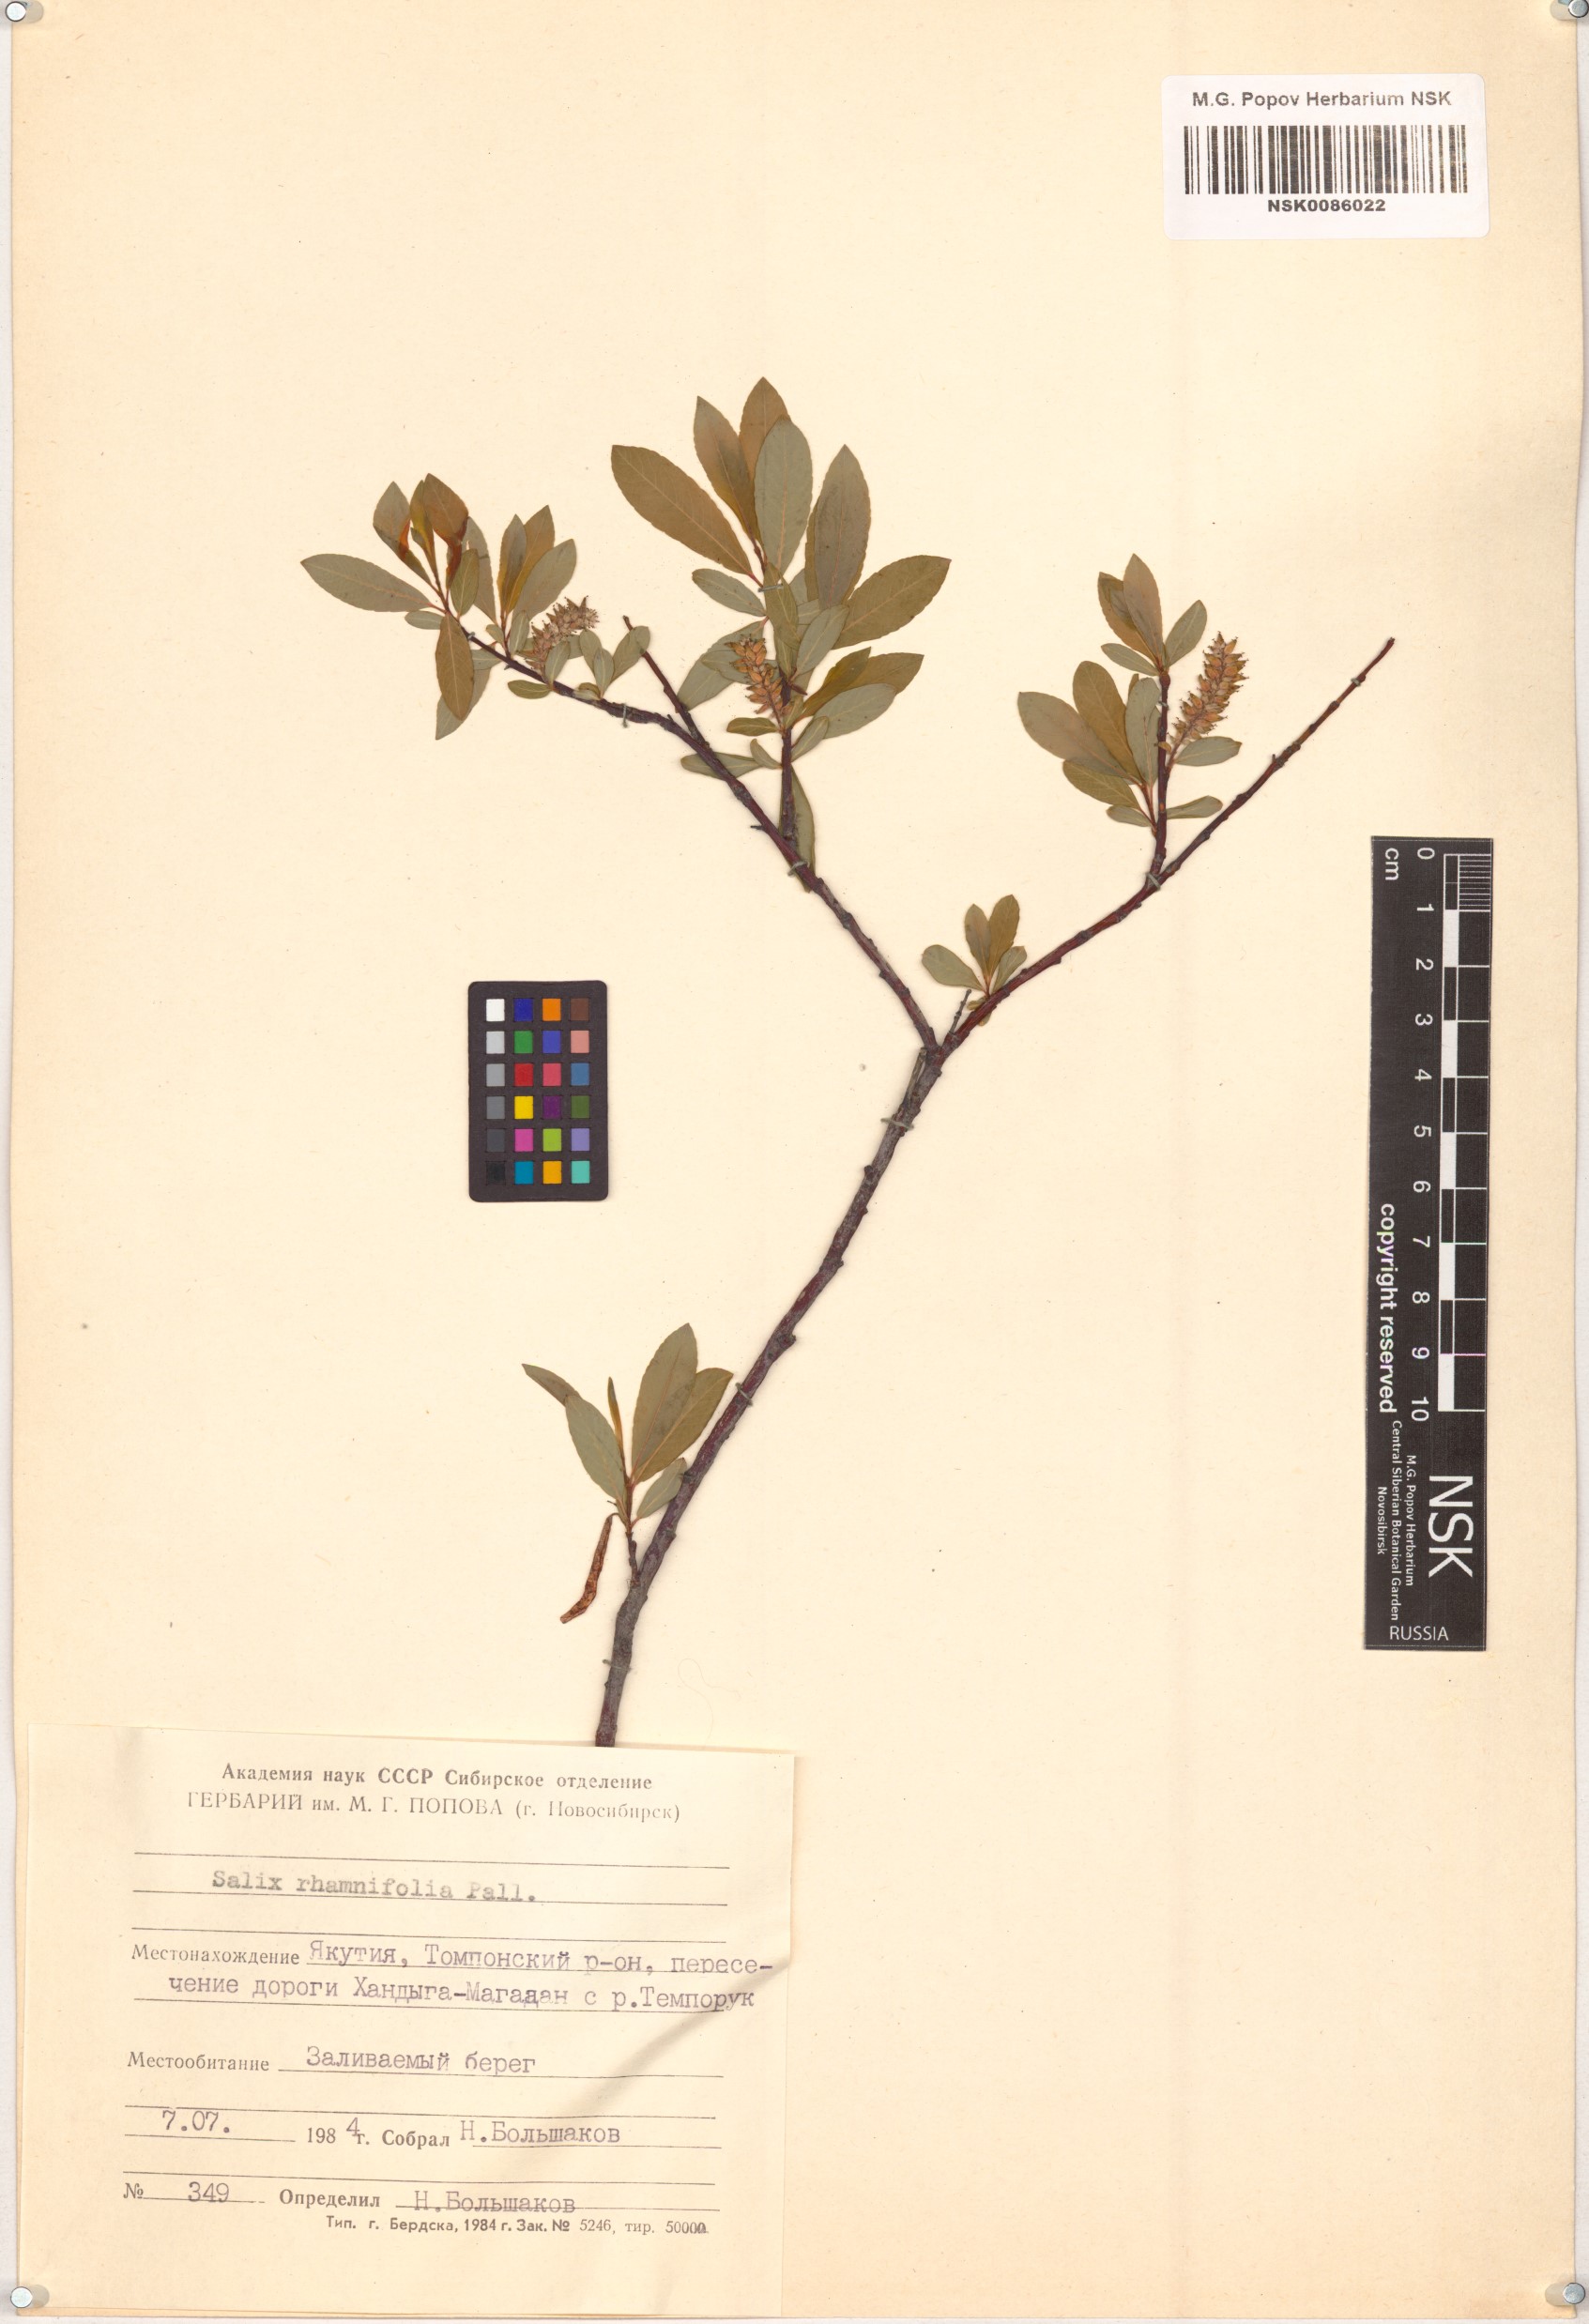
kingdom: Plantae
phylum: Tracheophyta
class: Magnoliopsida
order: Malpighiales
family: Salicaceae
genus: Salix
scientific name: Salix rhamnifolia
